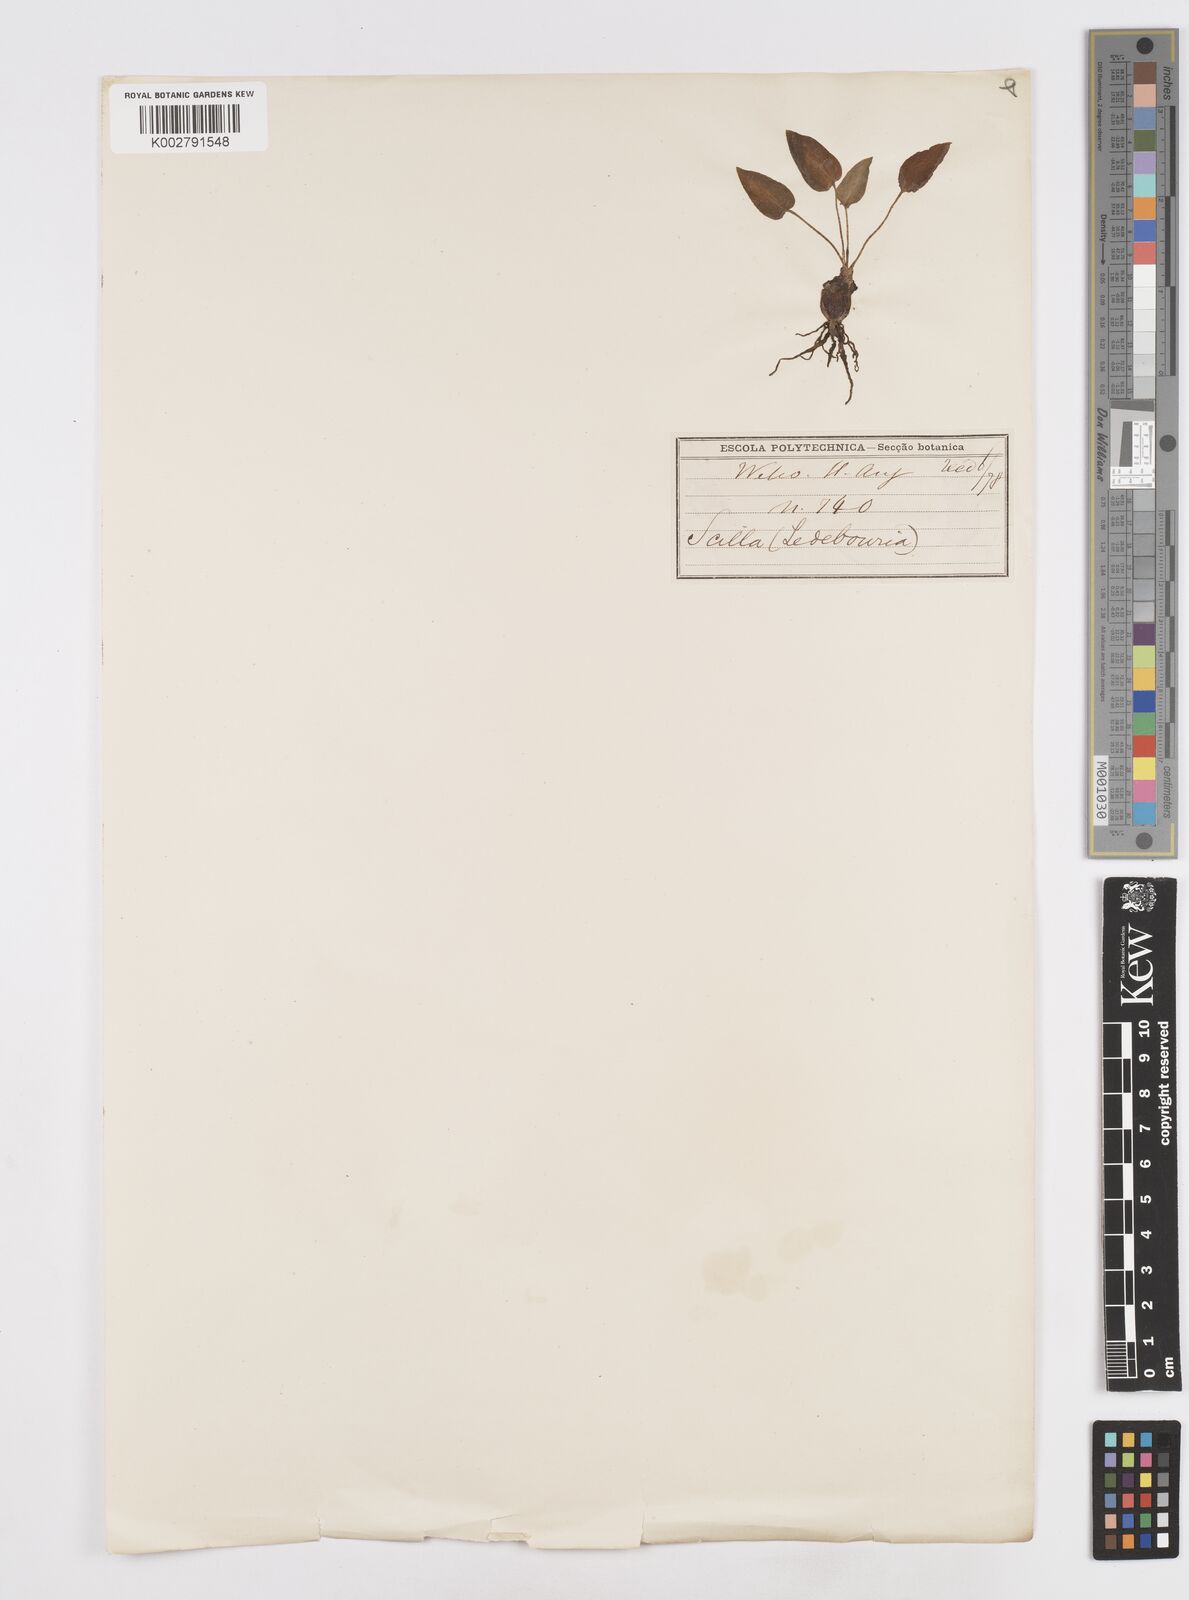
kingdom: Plantae
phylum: Tracheophyta
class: Liliopsida
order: Asparagales
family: Asparagaceae
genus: Scilla
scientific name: Scilla
